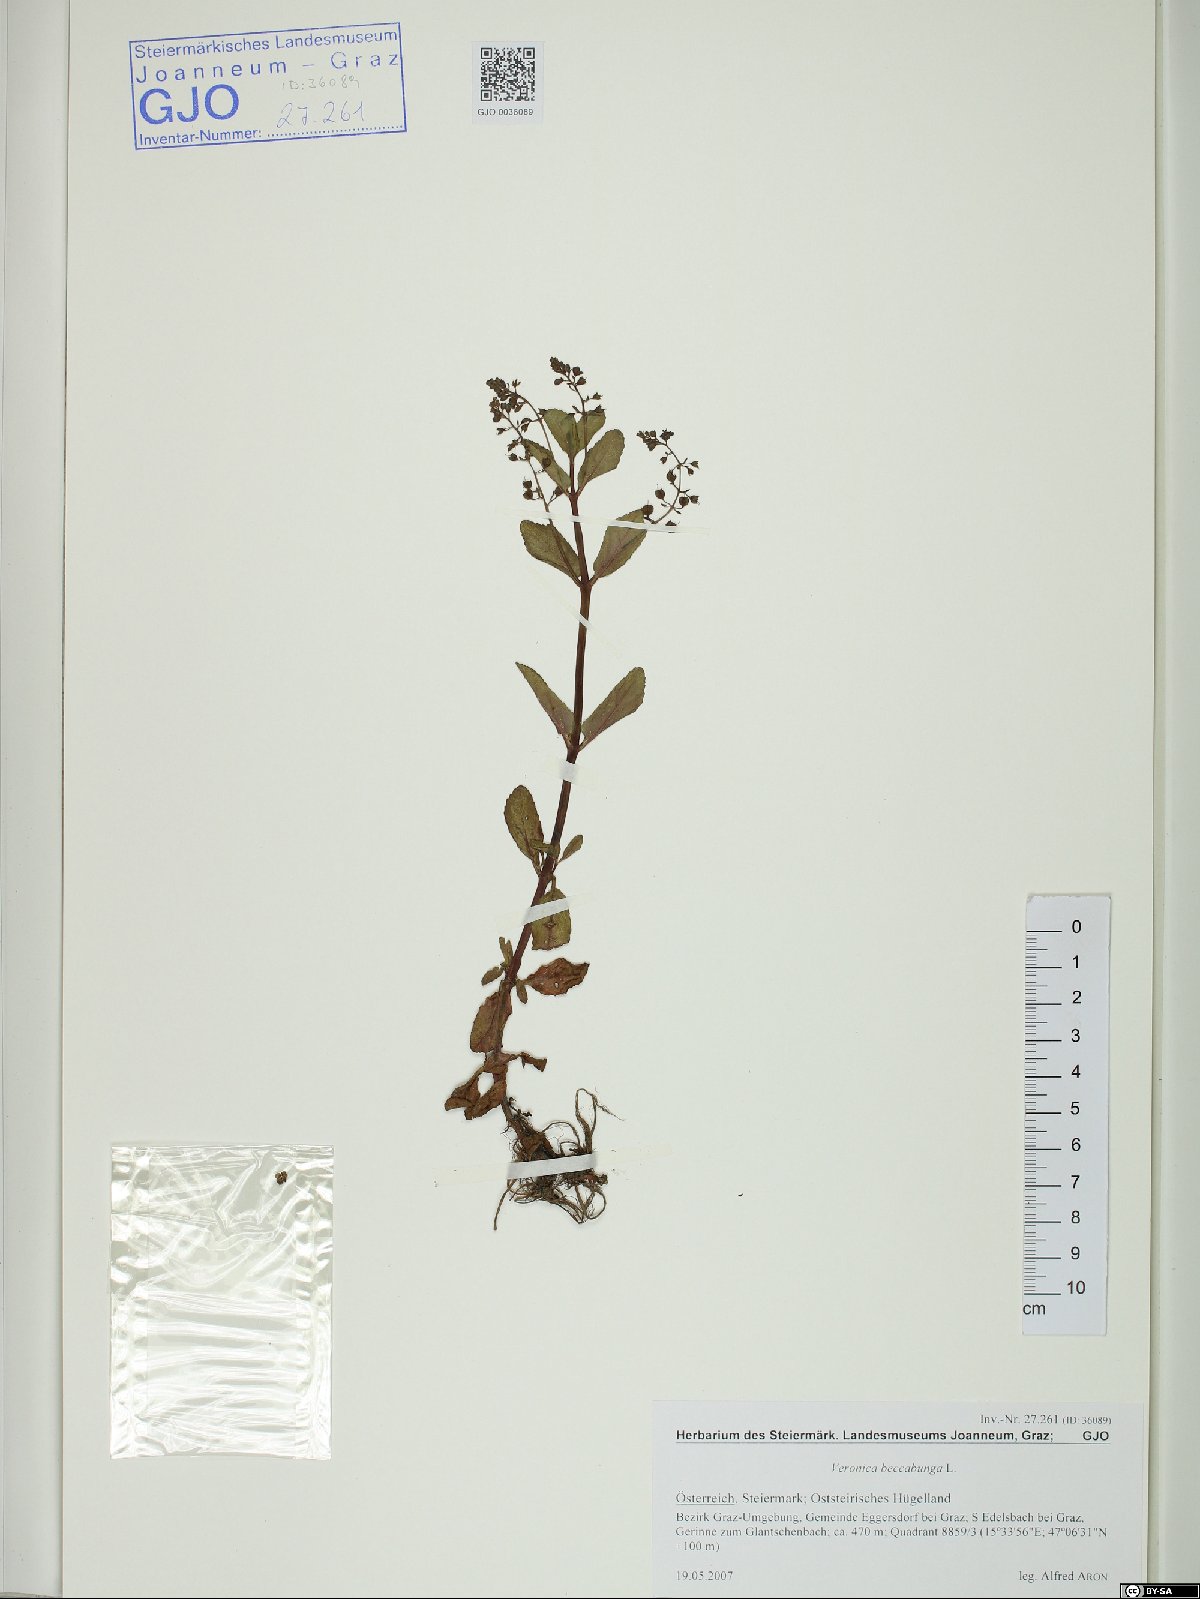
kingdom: Plantae
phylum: Tracheophyta
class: Magnoliopsida
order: Lamiales
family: Plantaginaceae
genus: Veronica
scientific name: Veronica beccabunga
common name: Brooklime
